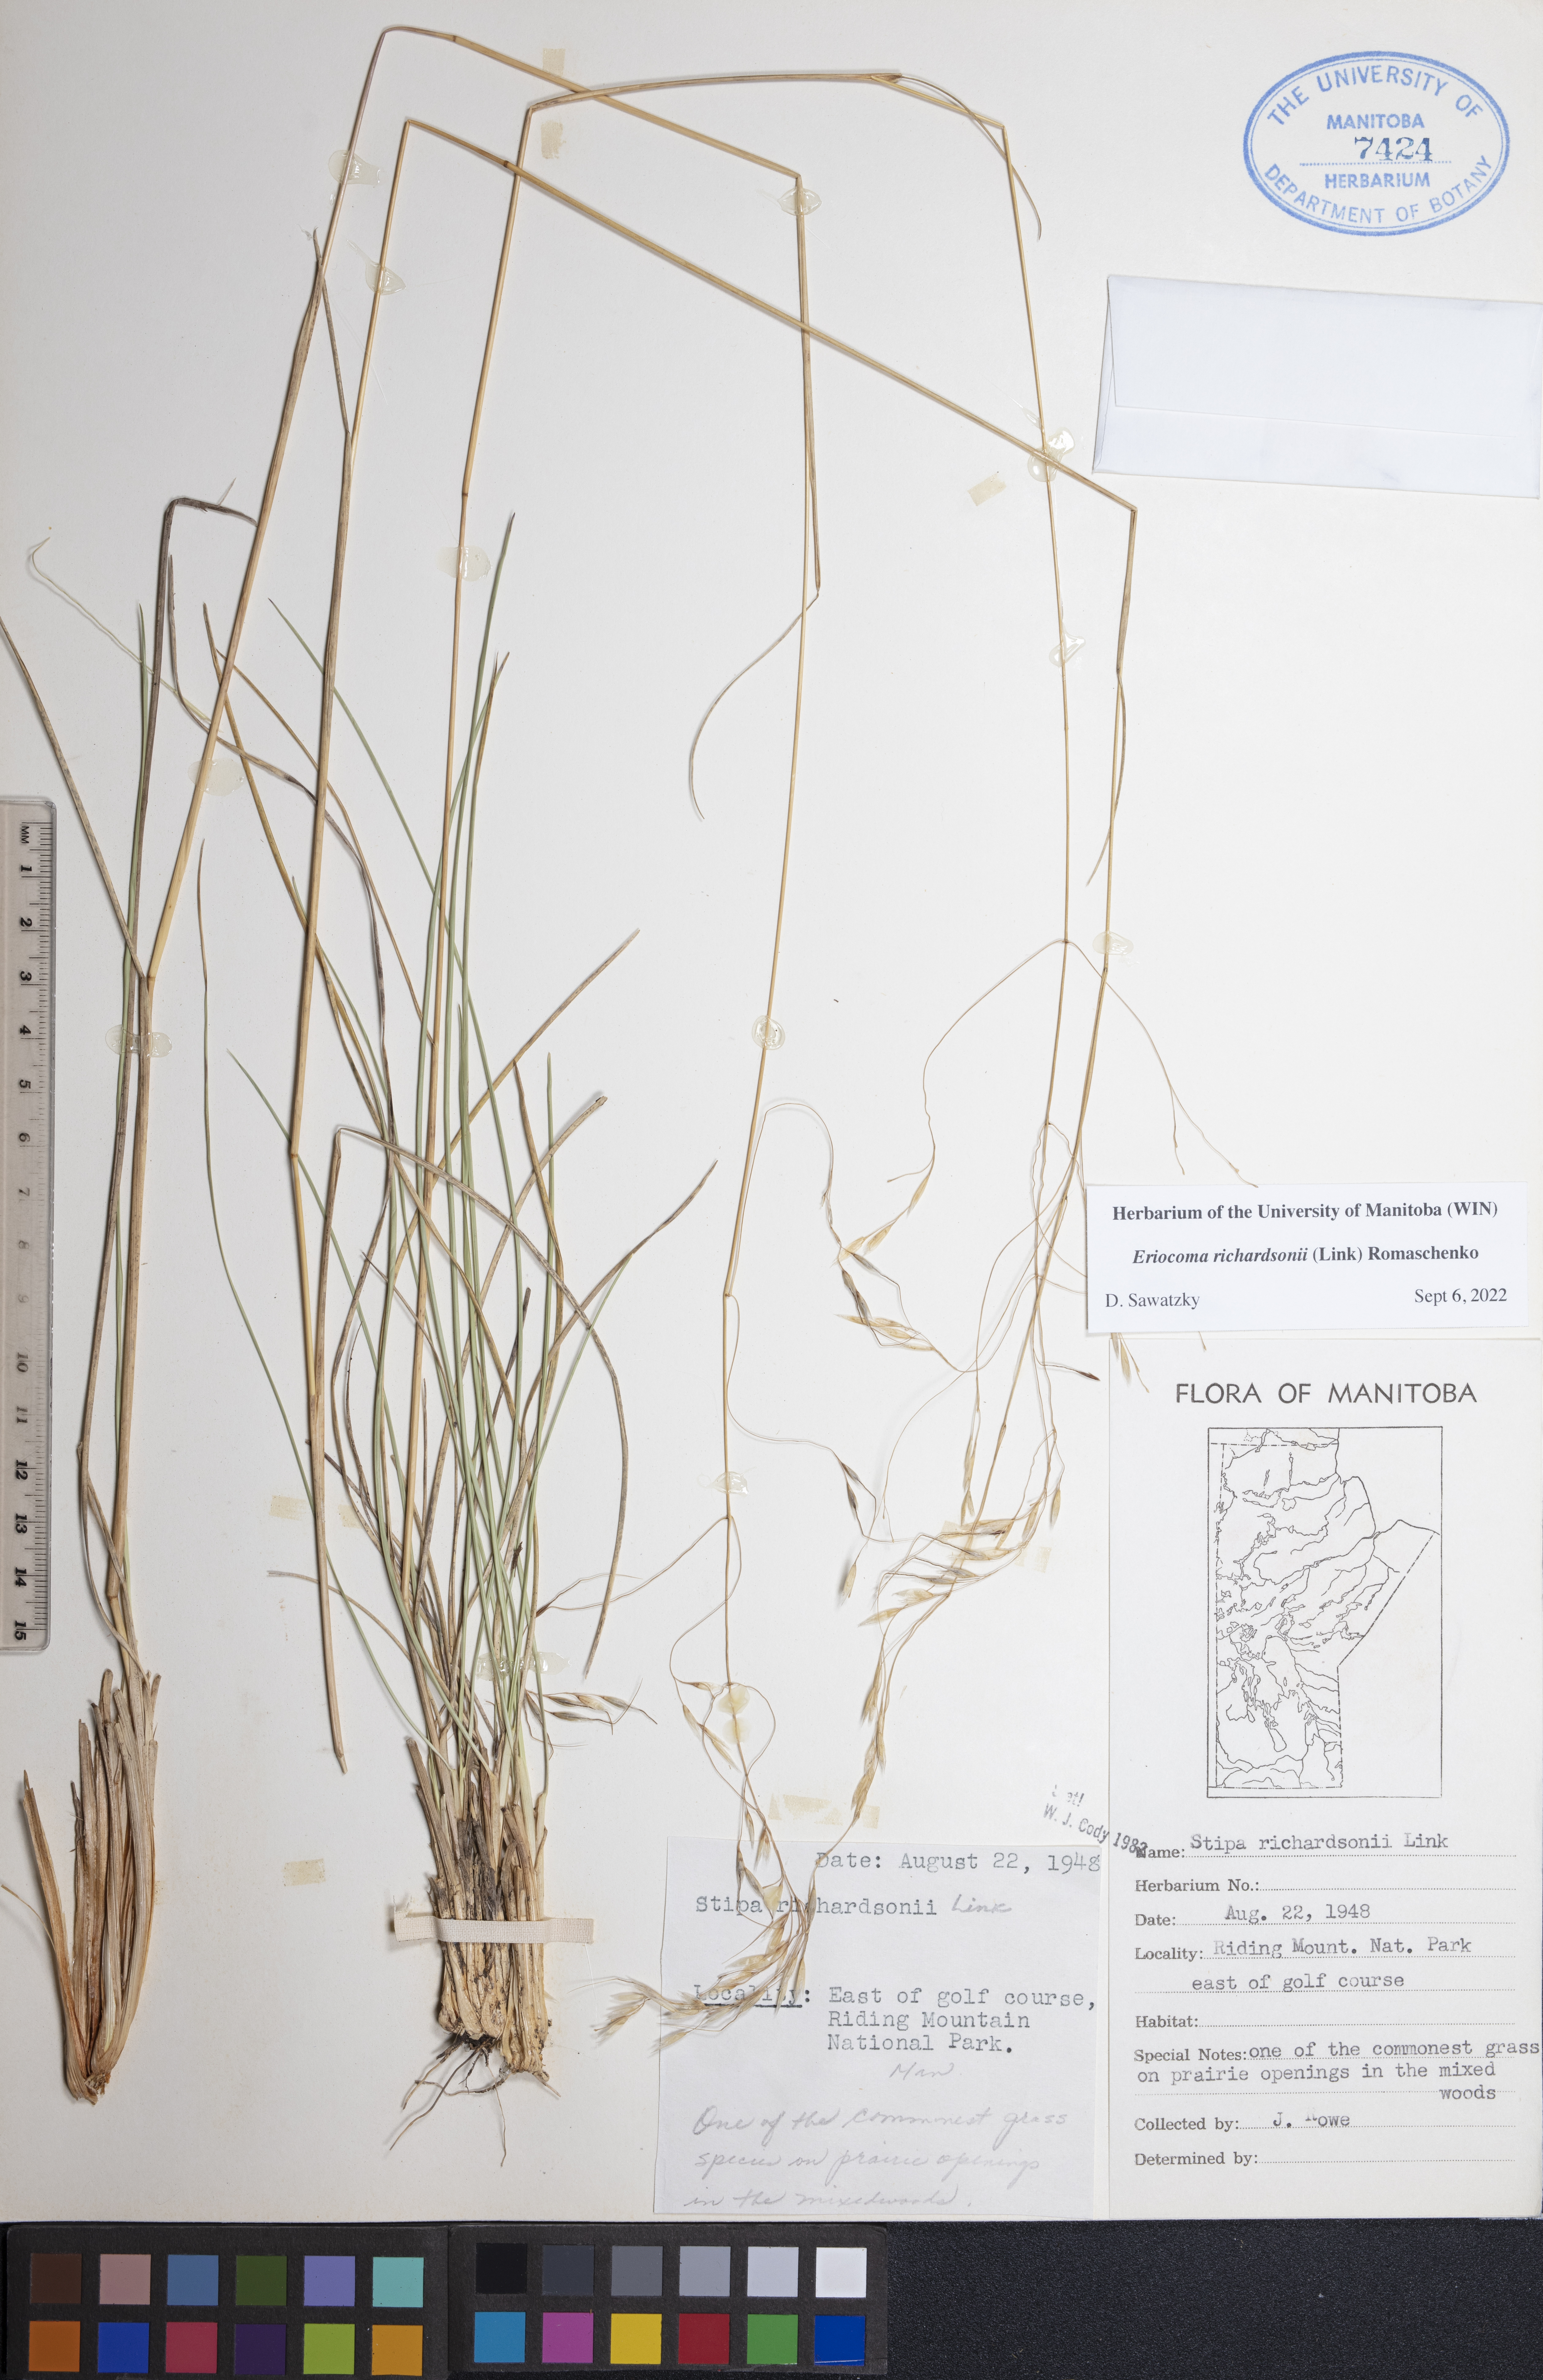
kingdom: Plantae
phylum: Tracheophyta
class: Liliopsida
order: Poales
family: Poaceae
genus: Eriocoma
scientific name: Eriocoma richardsonii
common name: Richardson's needlegrass
